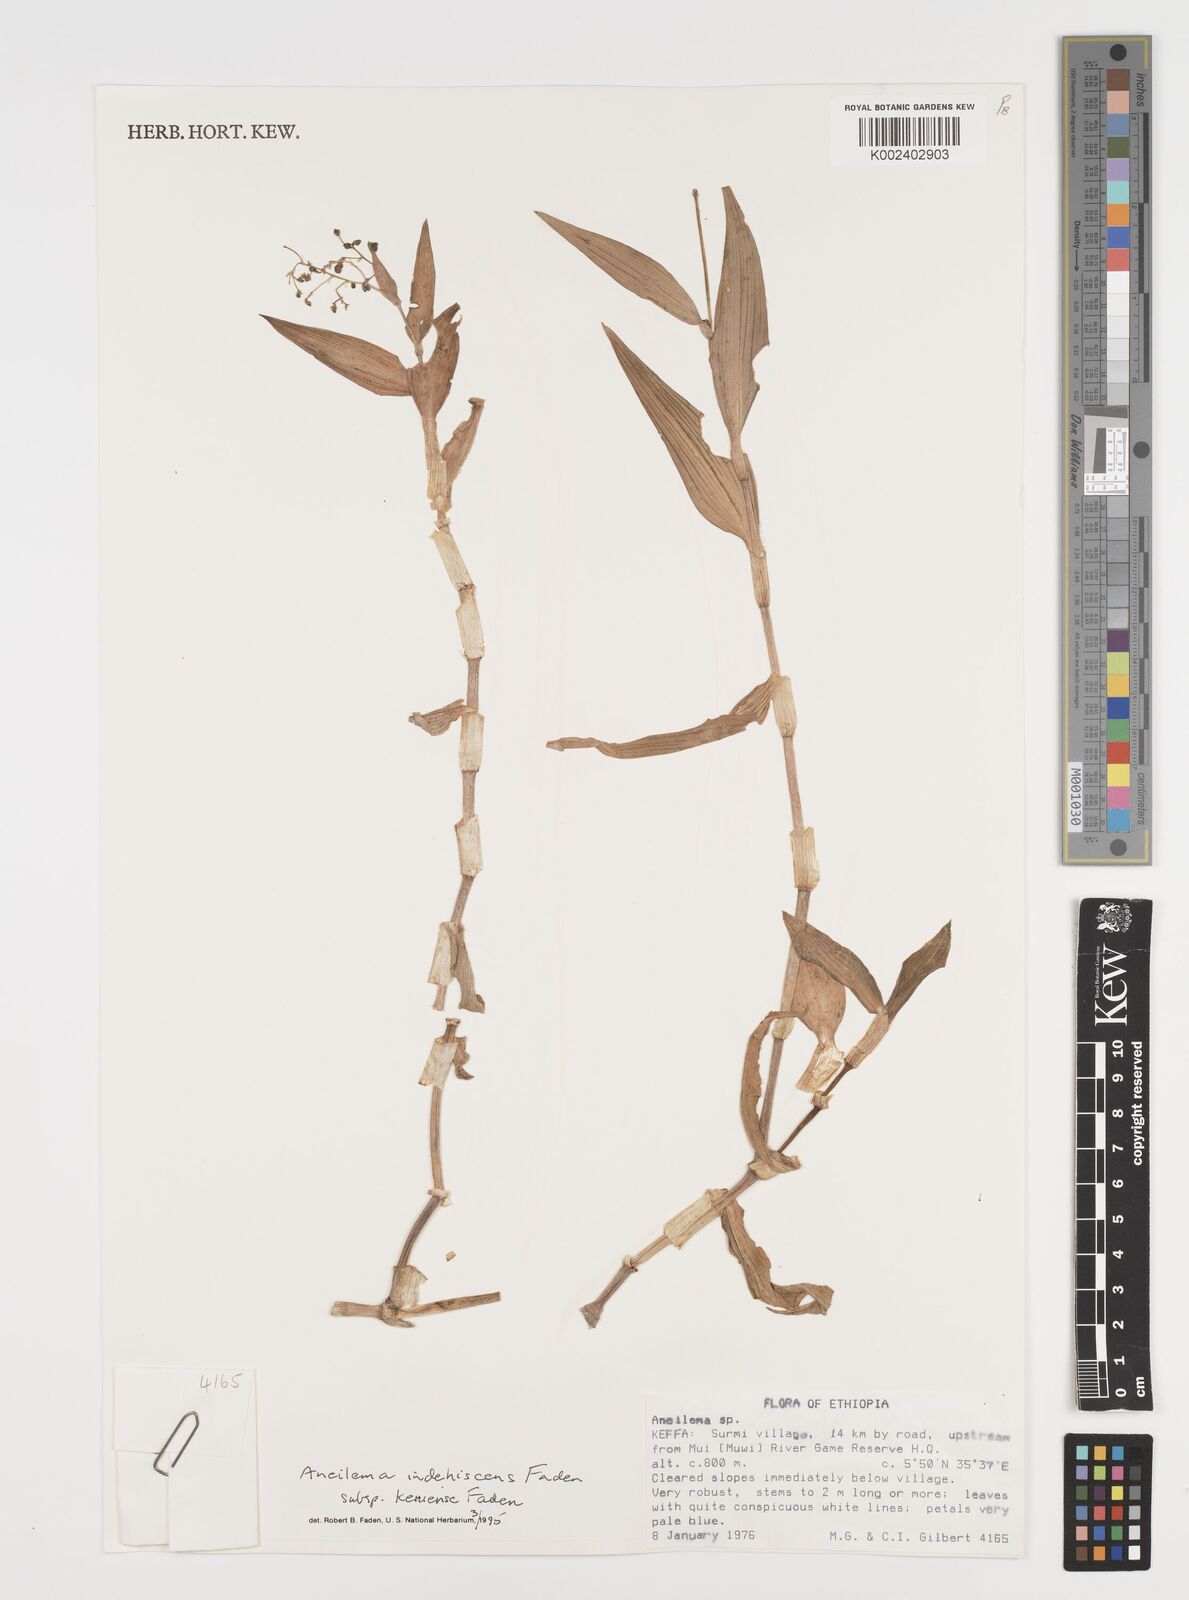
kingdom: Plantae
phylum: Tracheophyta
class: Liliopsida
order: Commelinales
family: Commelinaceae
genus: Aneilema
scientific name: Aneilema indehiscens
